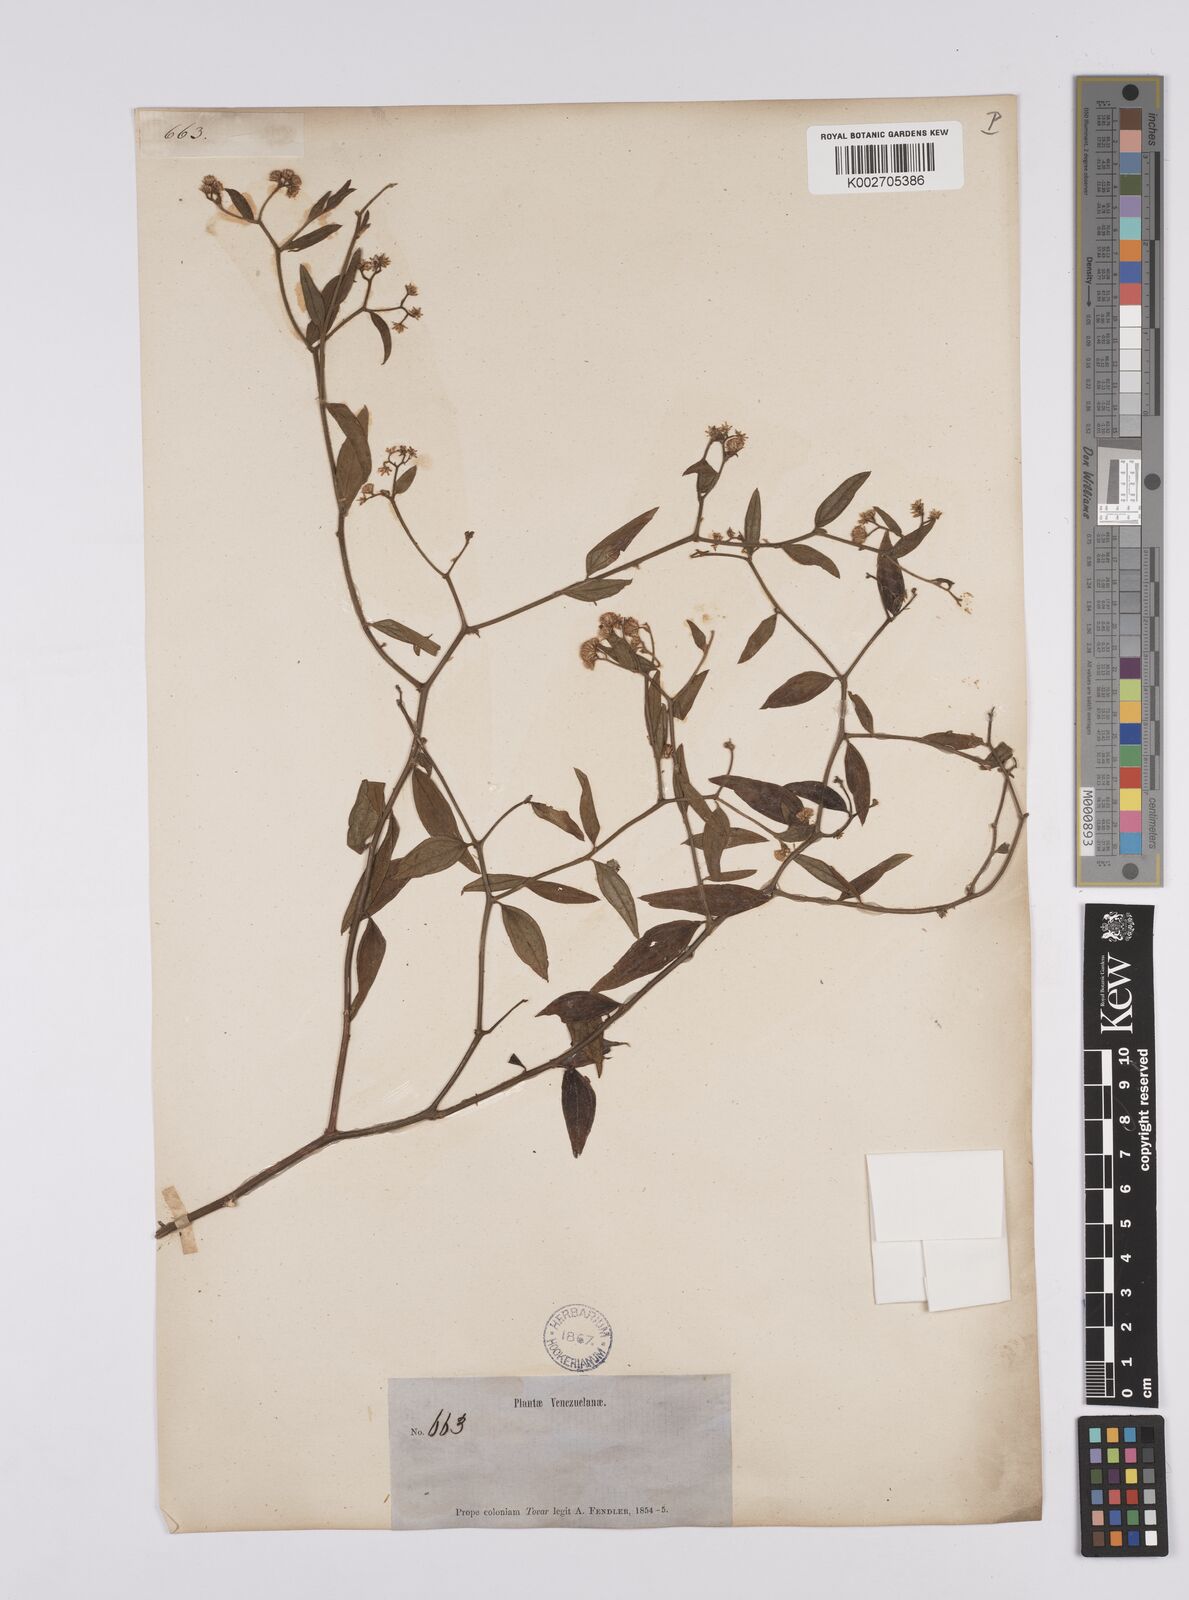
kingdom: Plantae
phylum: Tracheophyta
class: Magnoliopsida
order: Asterales
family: Asteraceae
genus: Baccharis
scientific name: Baccharis trinervis
